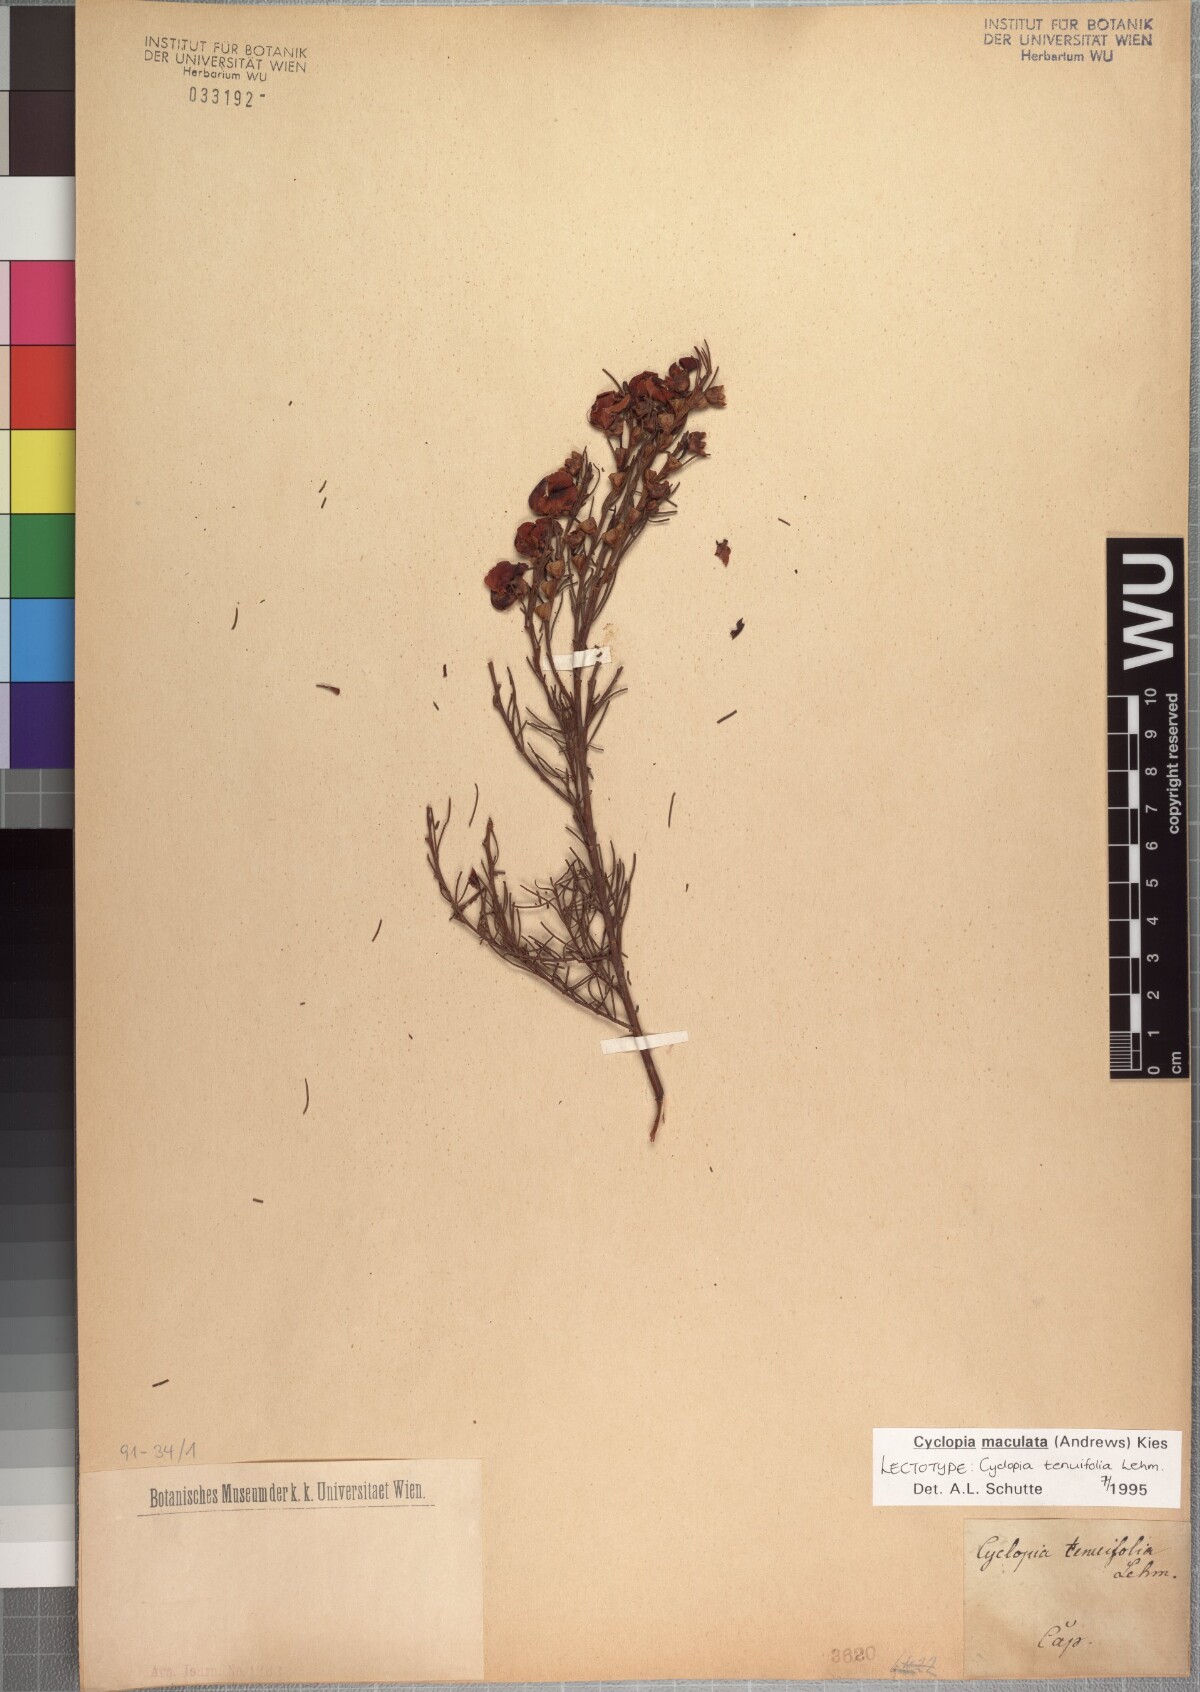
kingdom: Plantae
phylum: Tracheophyta
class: Magnoliopsida
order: Fabales
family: Fabaceae
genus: Cyclopia
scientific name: Cyclopia maculata
